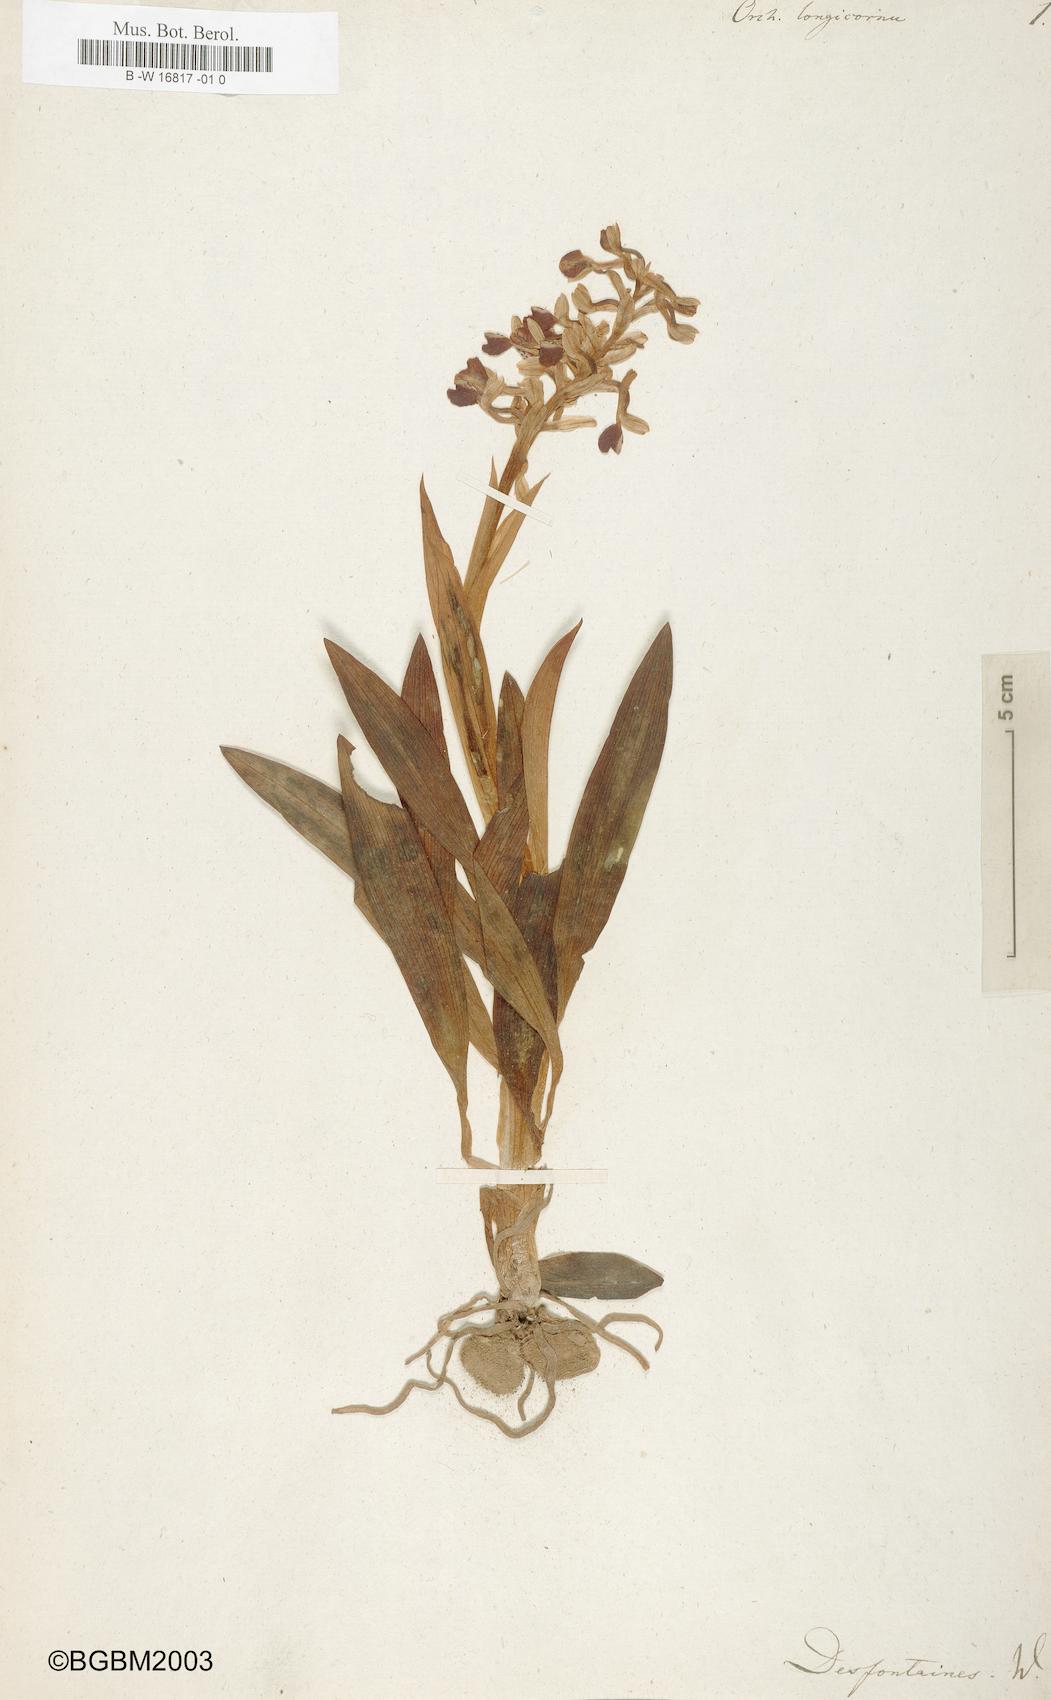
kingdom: Plantae
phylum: Tracheophyta
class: Liliopsida
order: Asparagales
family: Orchidaceae
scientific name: Orchidaceae
